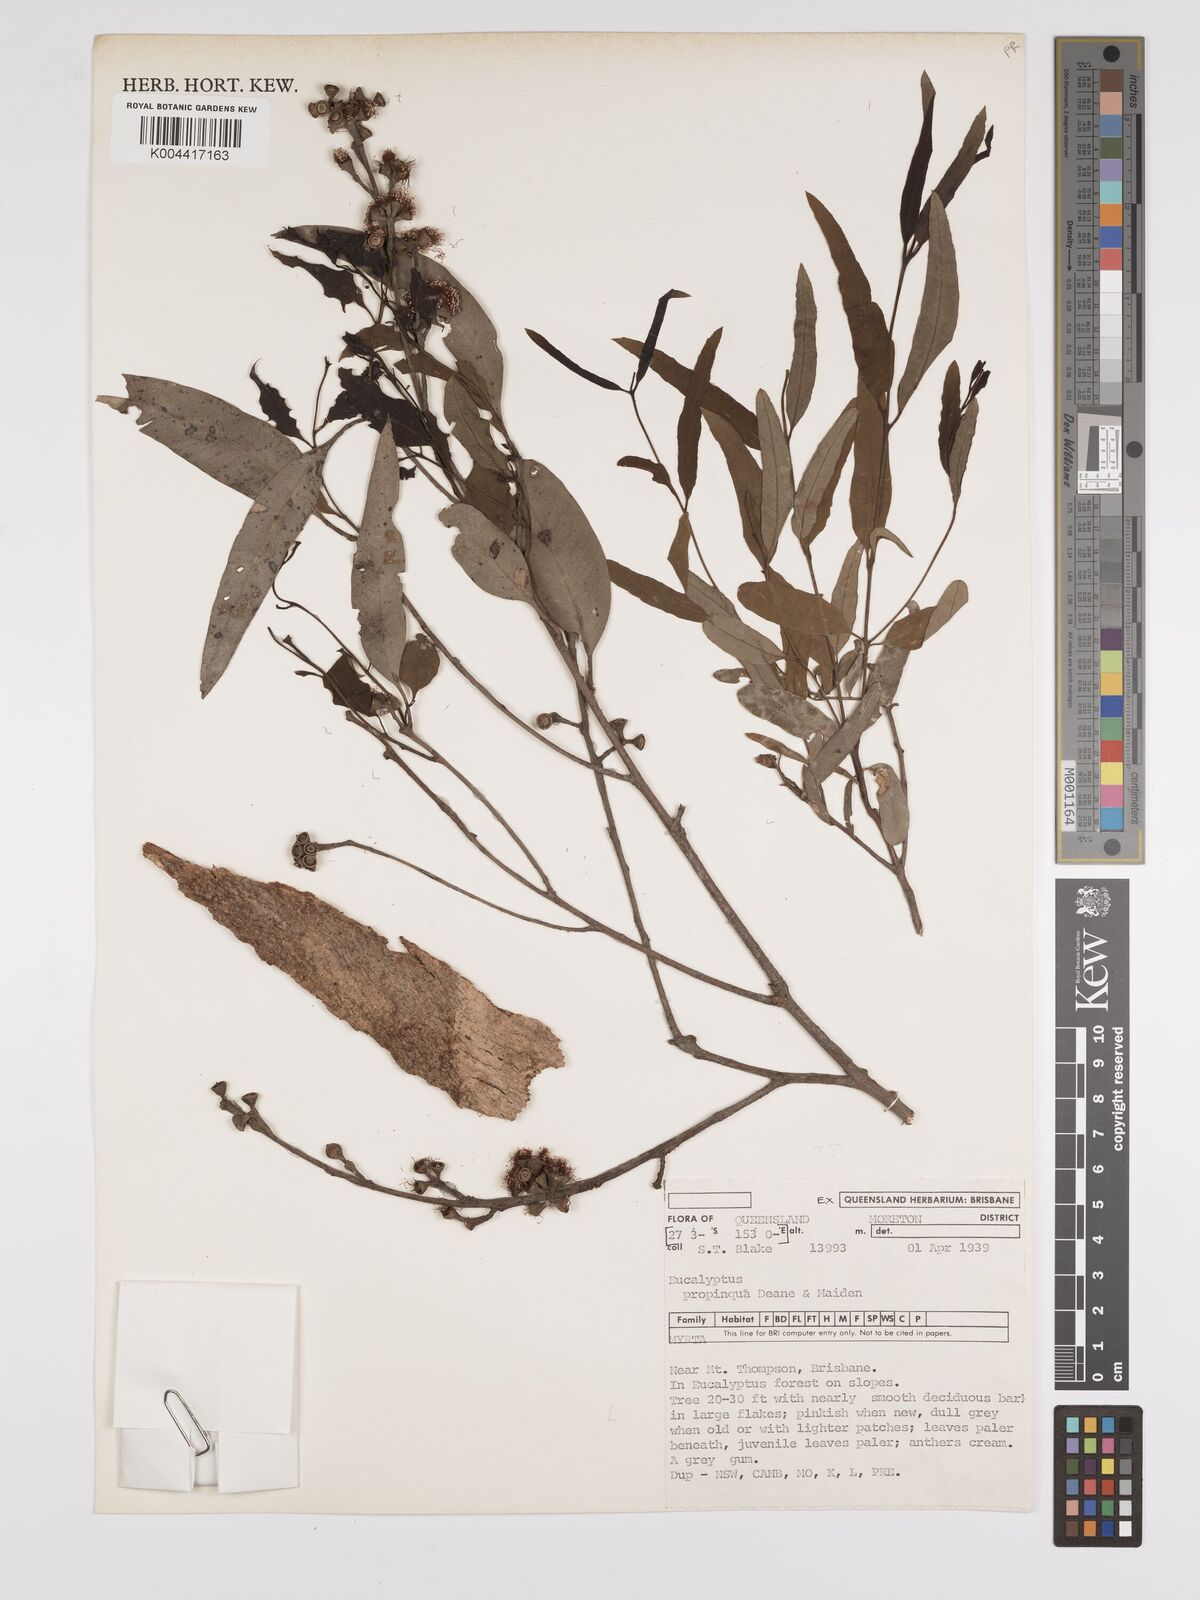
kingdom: Plantae
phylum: Tracheophyta
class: Magnoliopsida
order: Myrtales
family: Myrtaceae
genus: Eucalyptus
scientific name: Eucalyptus
